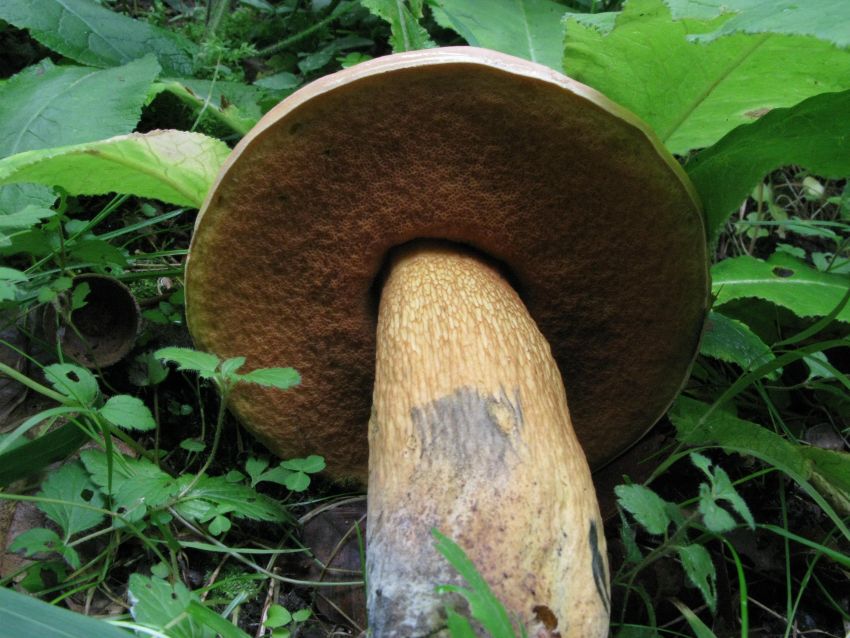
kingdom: Fungi
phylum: Basidiomycota
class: Agaricomycetes
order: Boletales
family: Boletaceae
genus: Suillellus
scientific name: Suillellus luridus
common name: netstokket indigorørhat
